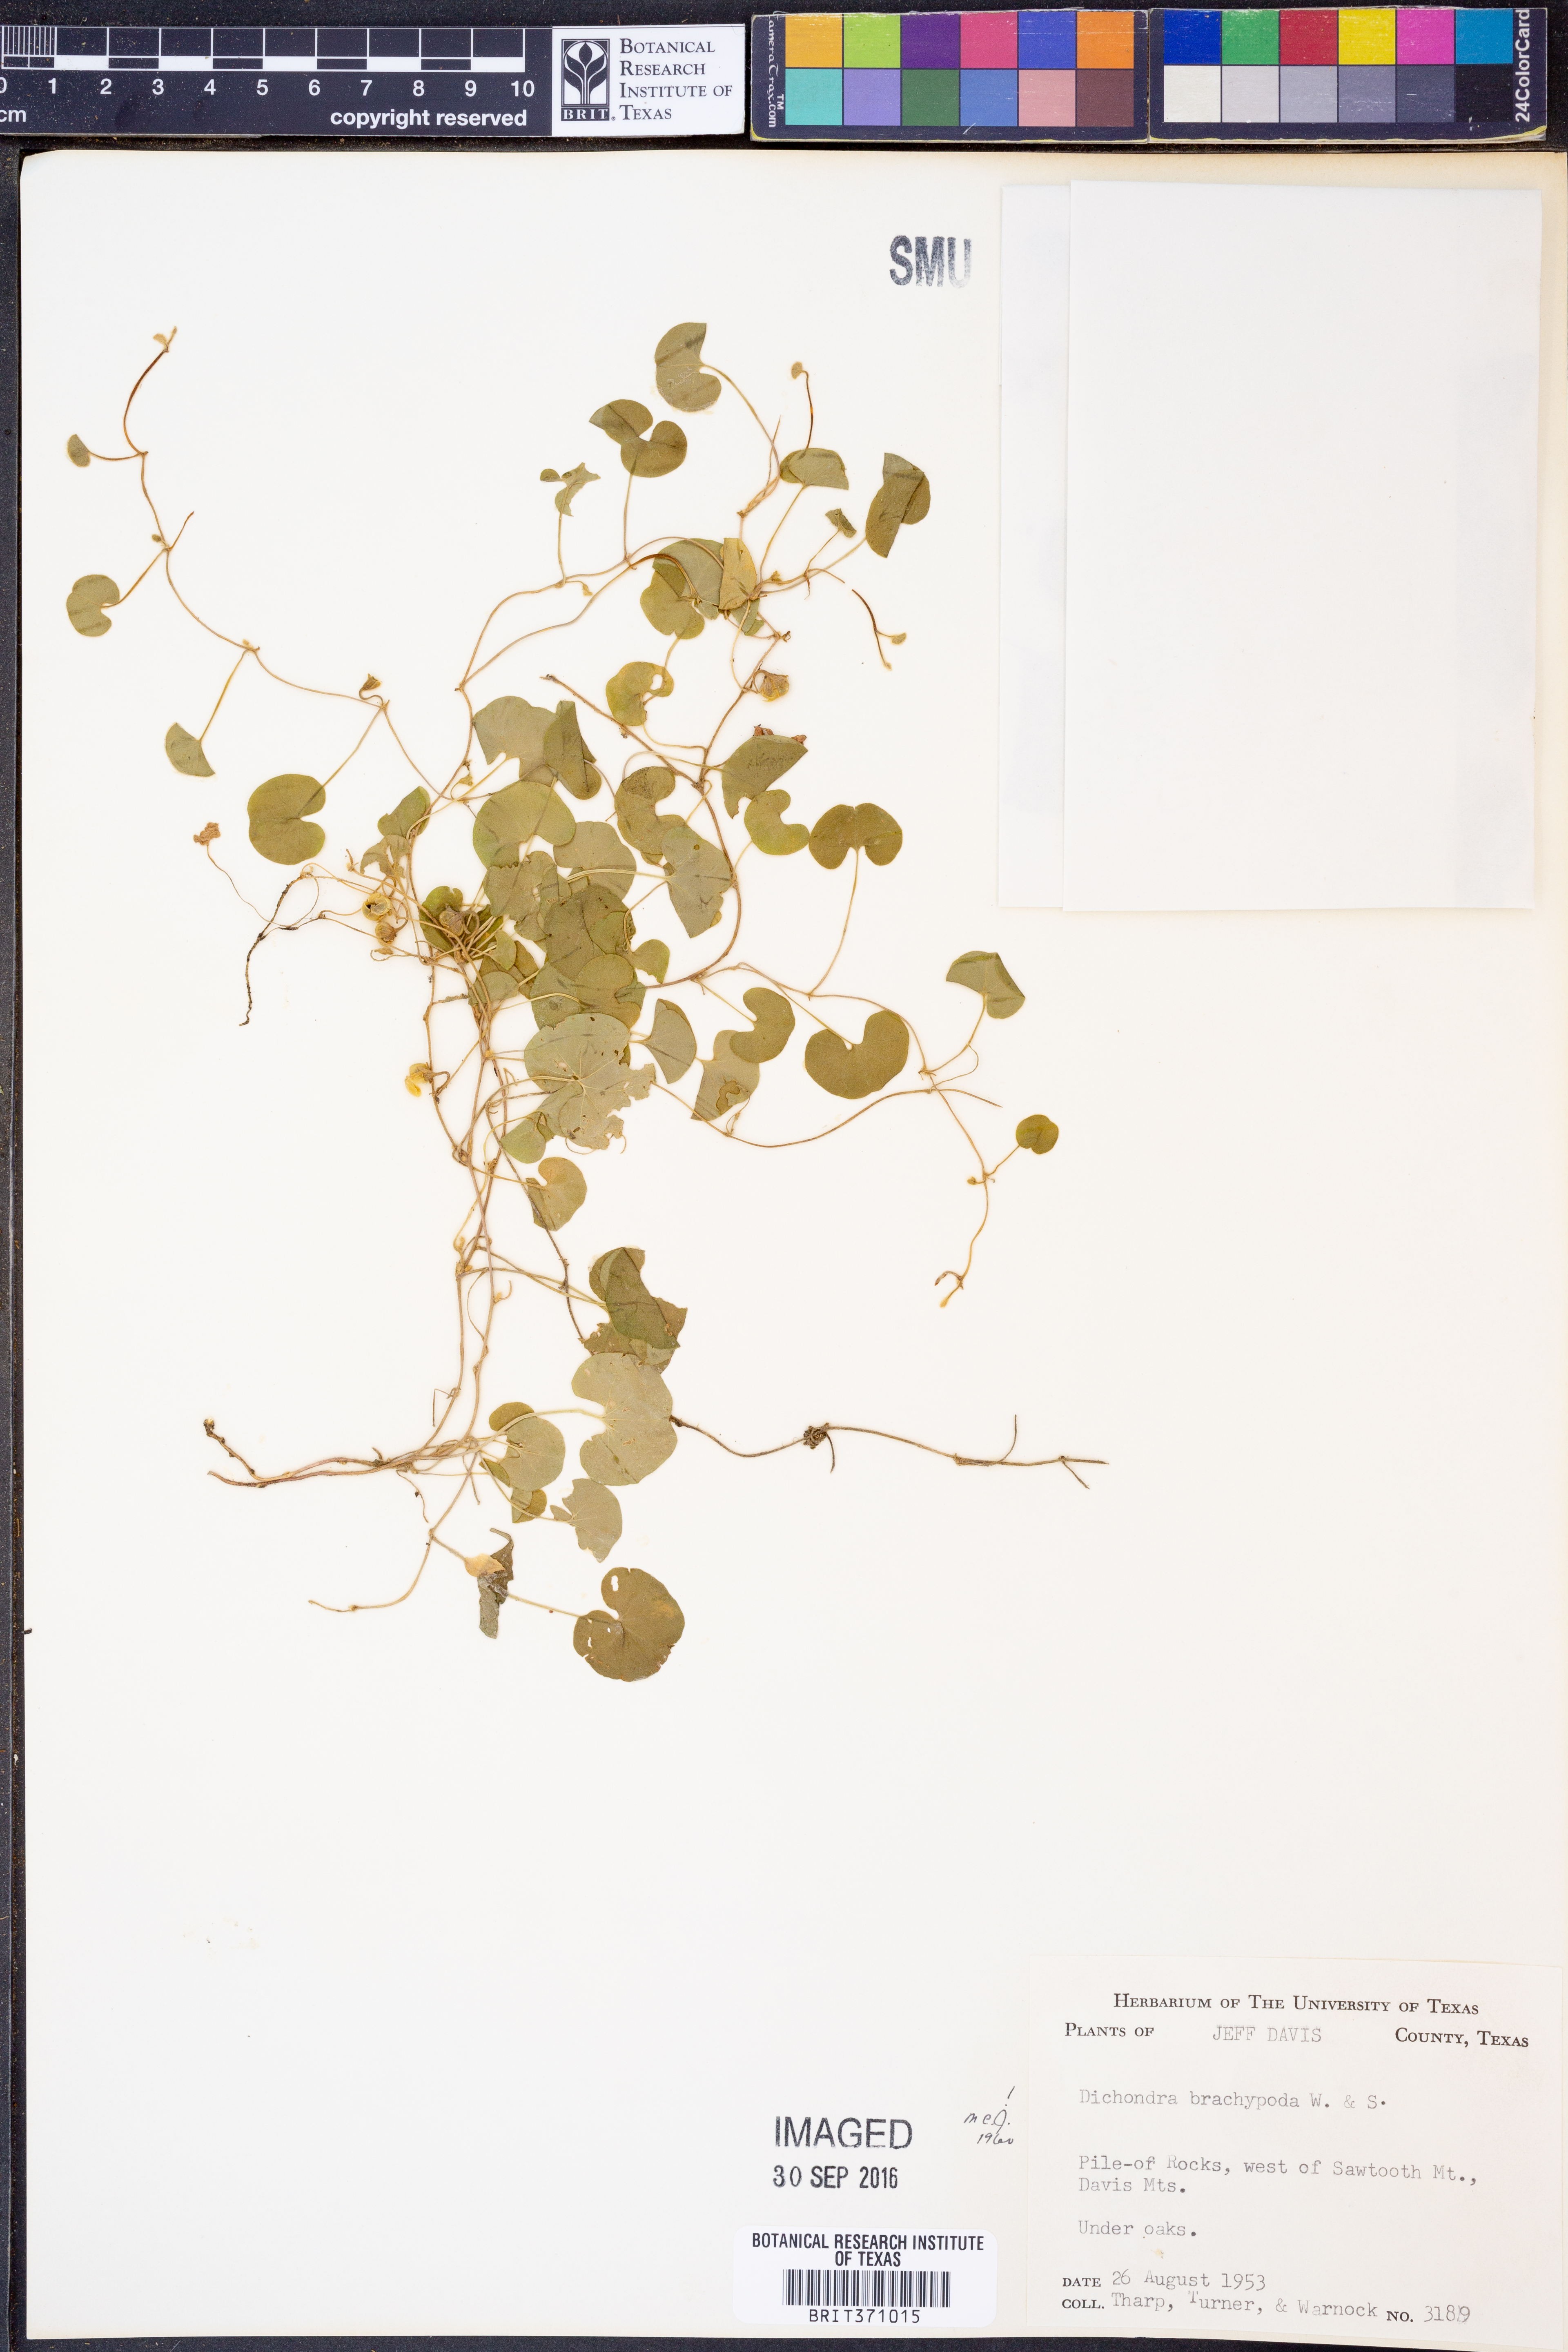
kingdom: Plantae
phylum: Tracheophyta
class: Magnoliopsida
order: Solanales
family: Convolvulaceae
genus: Dichondra
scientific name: Dichondra brachypoda
